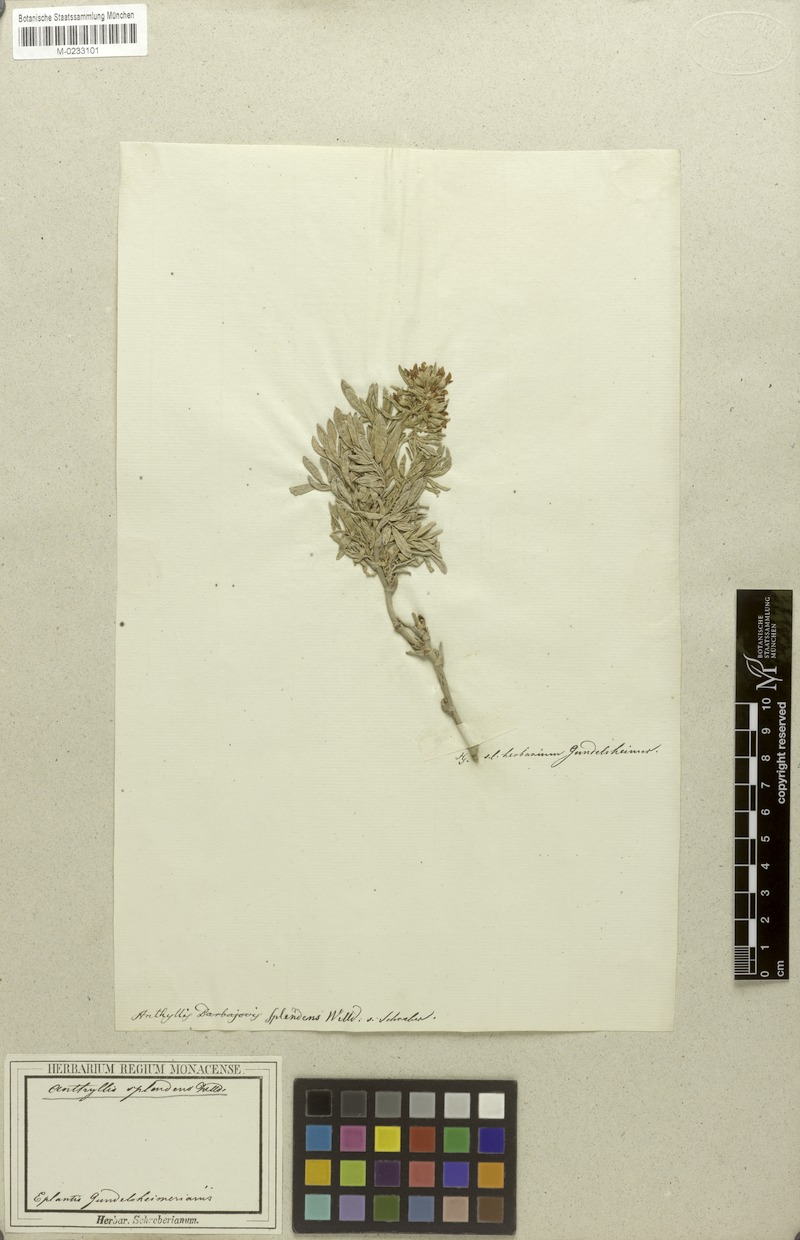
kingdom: Plantae
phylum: Tracheophyta
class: Magnoliopsida
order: Fabales
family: Fabaceae
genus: Anthyllis
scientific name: Anthyllis barba-jovis
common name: Jupiter's-beard
